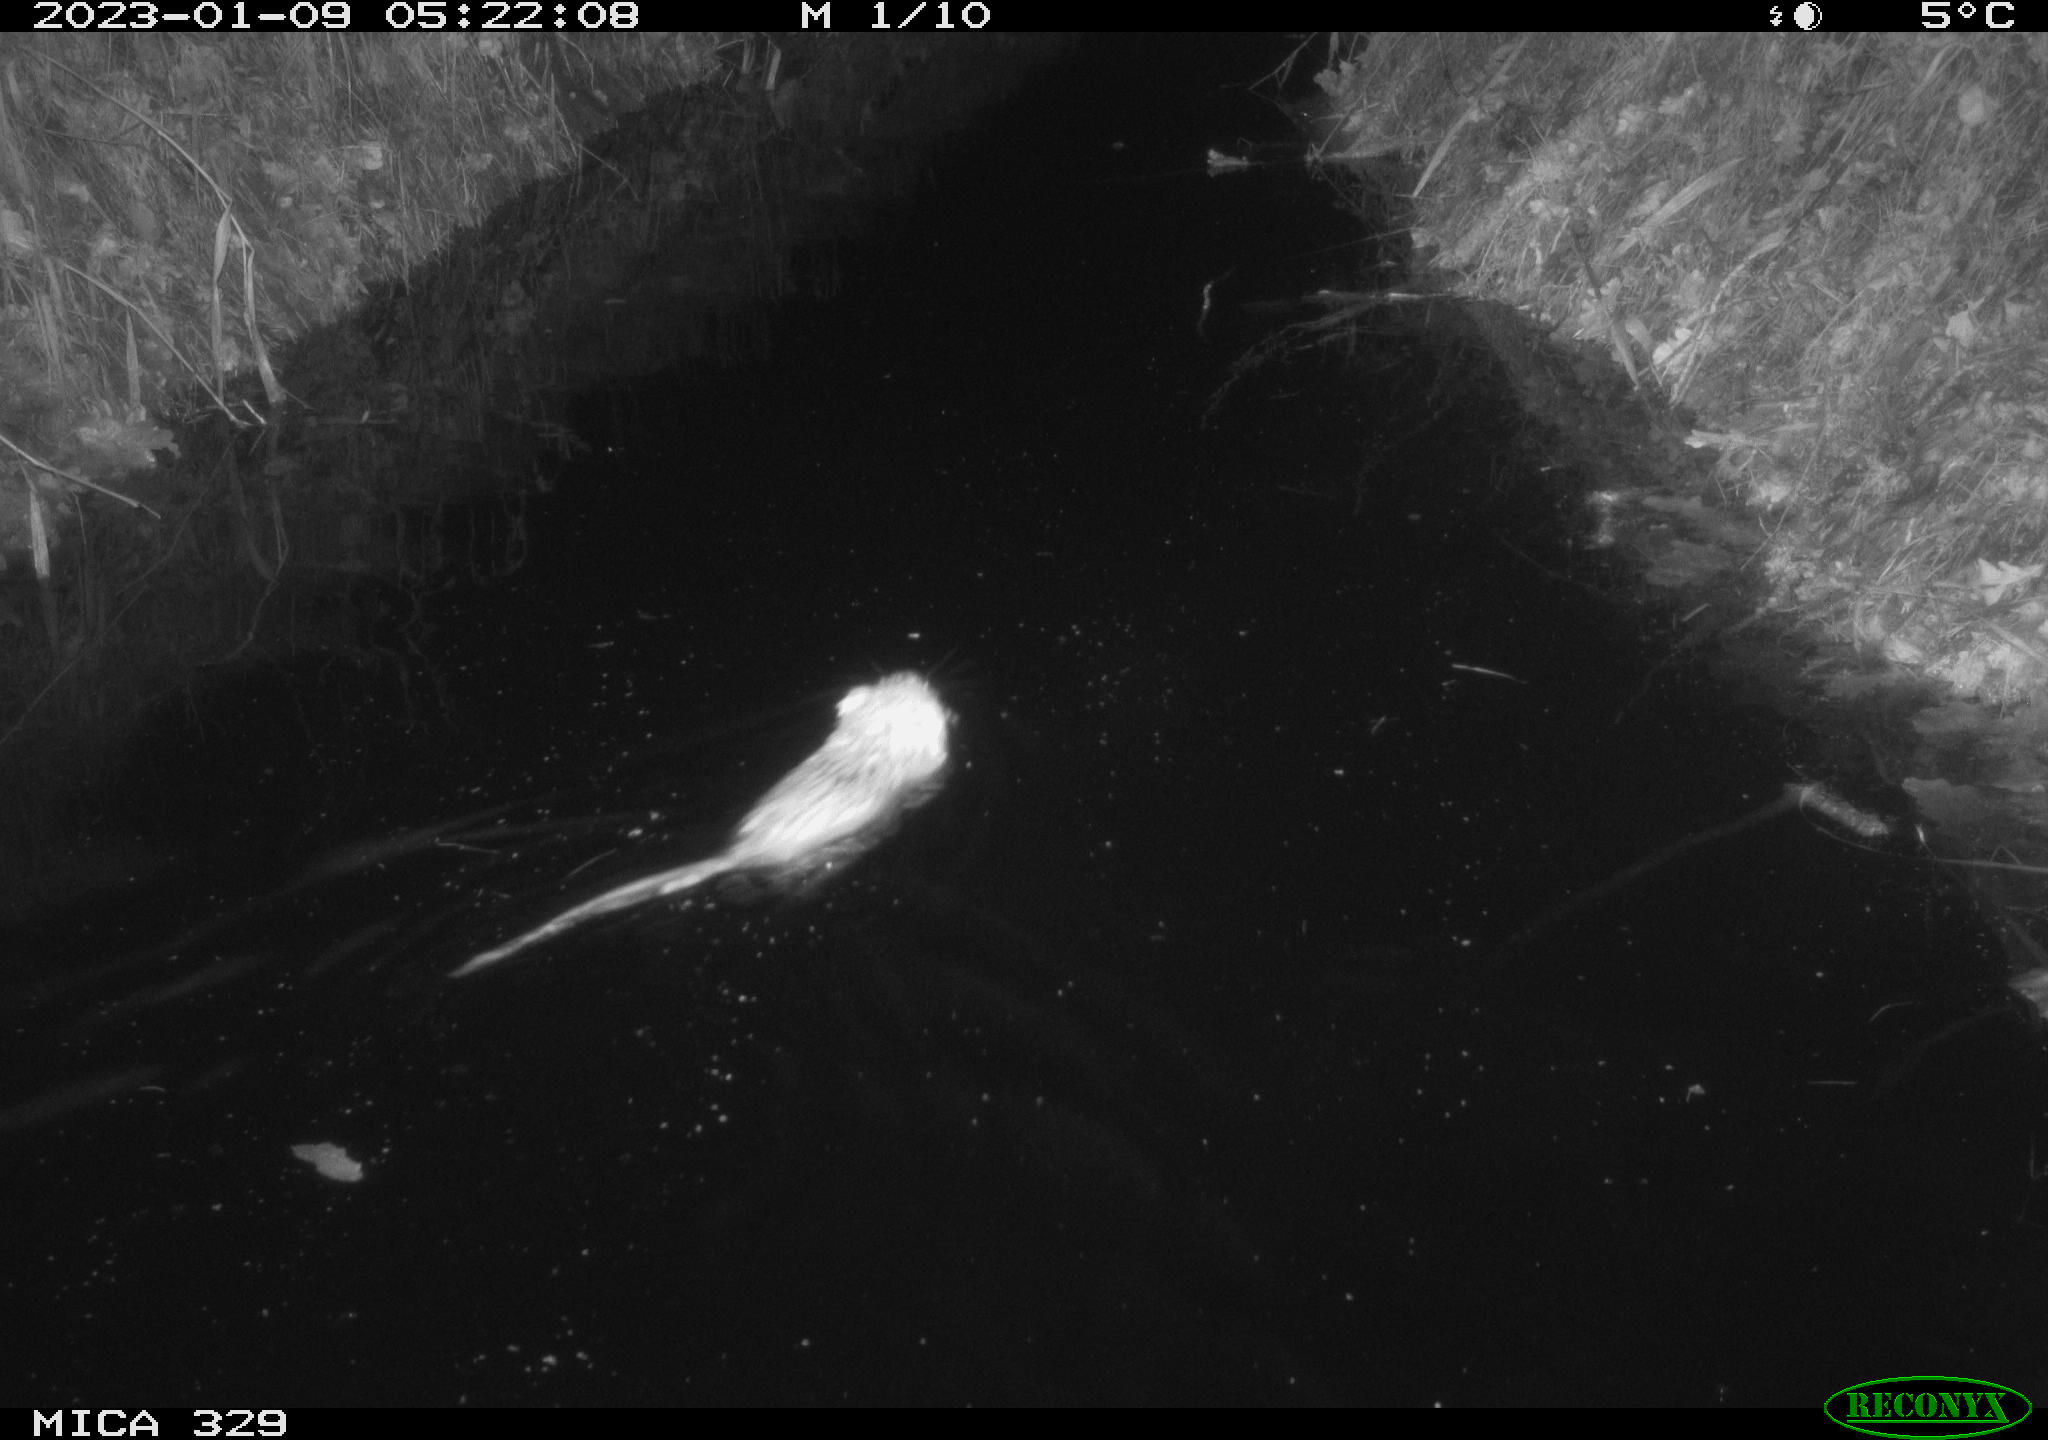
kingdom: Animalia
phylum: Chordata
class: Mammalia
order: Rodentia
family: Cricetidae
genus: Ondatra
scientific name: Ondatra zibethicus
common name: Muskrat
